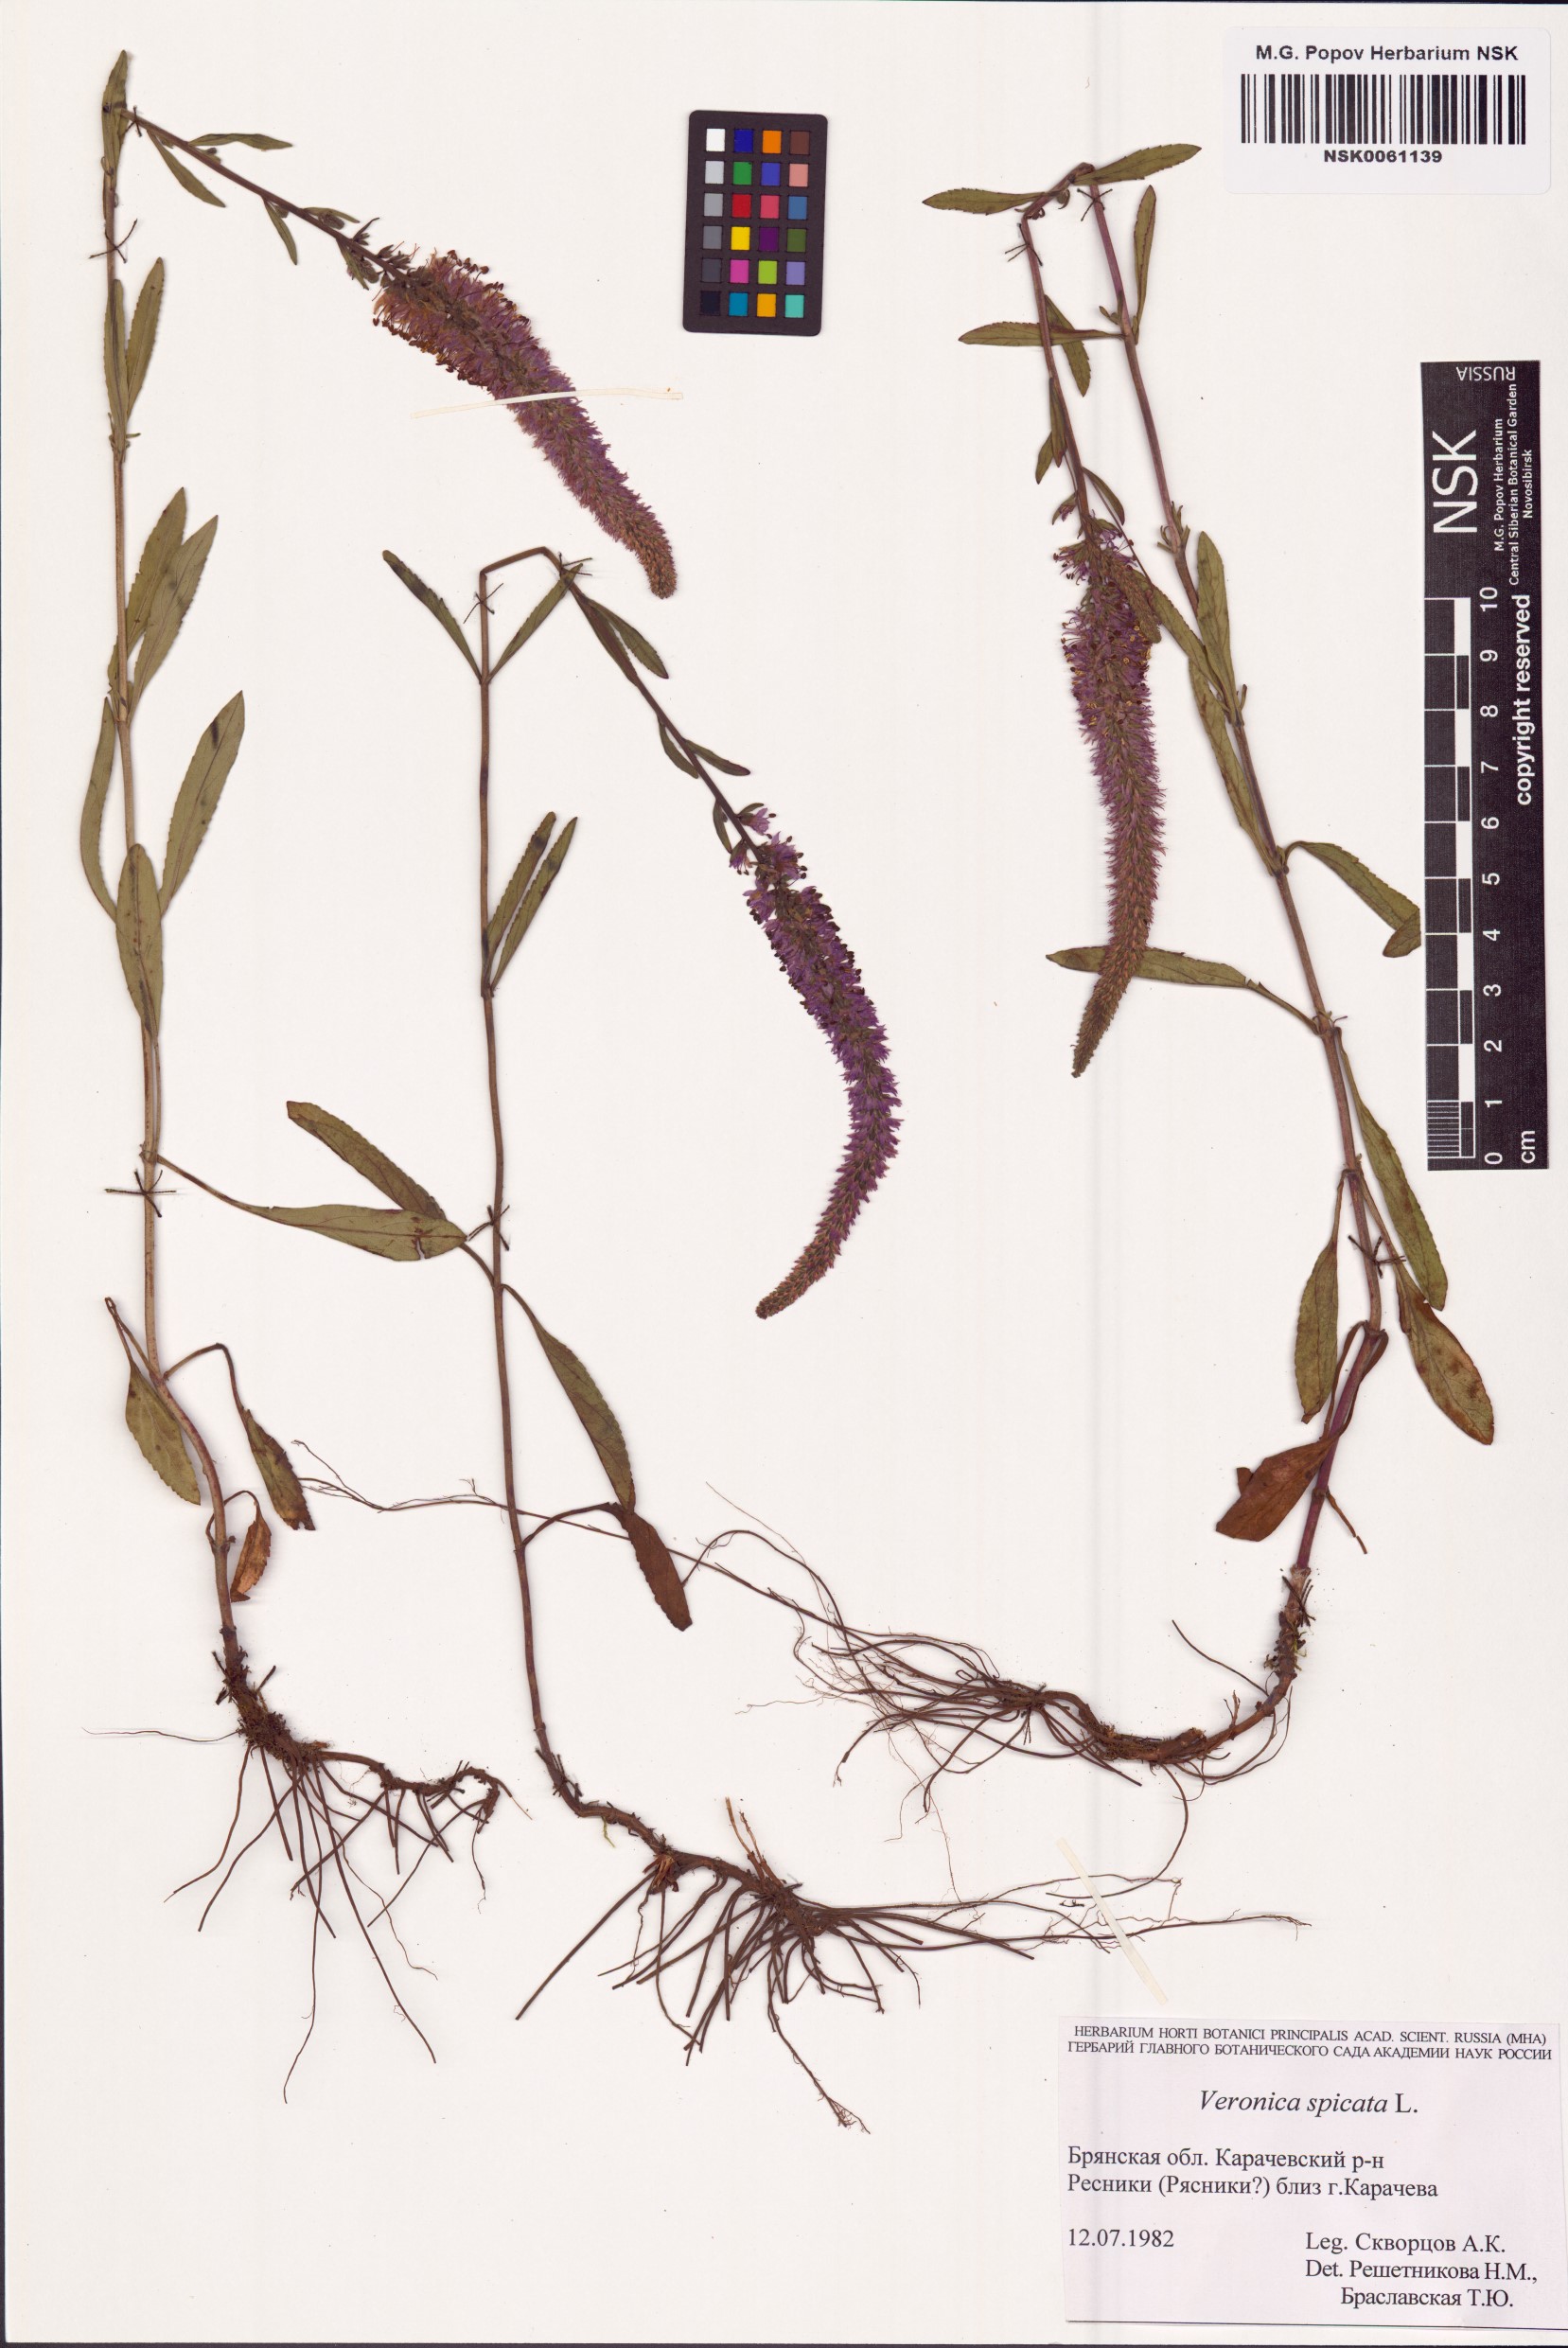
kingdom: Plantae
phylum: Tracheophyta
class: Magnoliopsida
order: Lamiales
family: Plantaginaceae
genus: Veronica
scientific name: Veronica spicata
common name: Spiked speedwell
